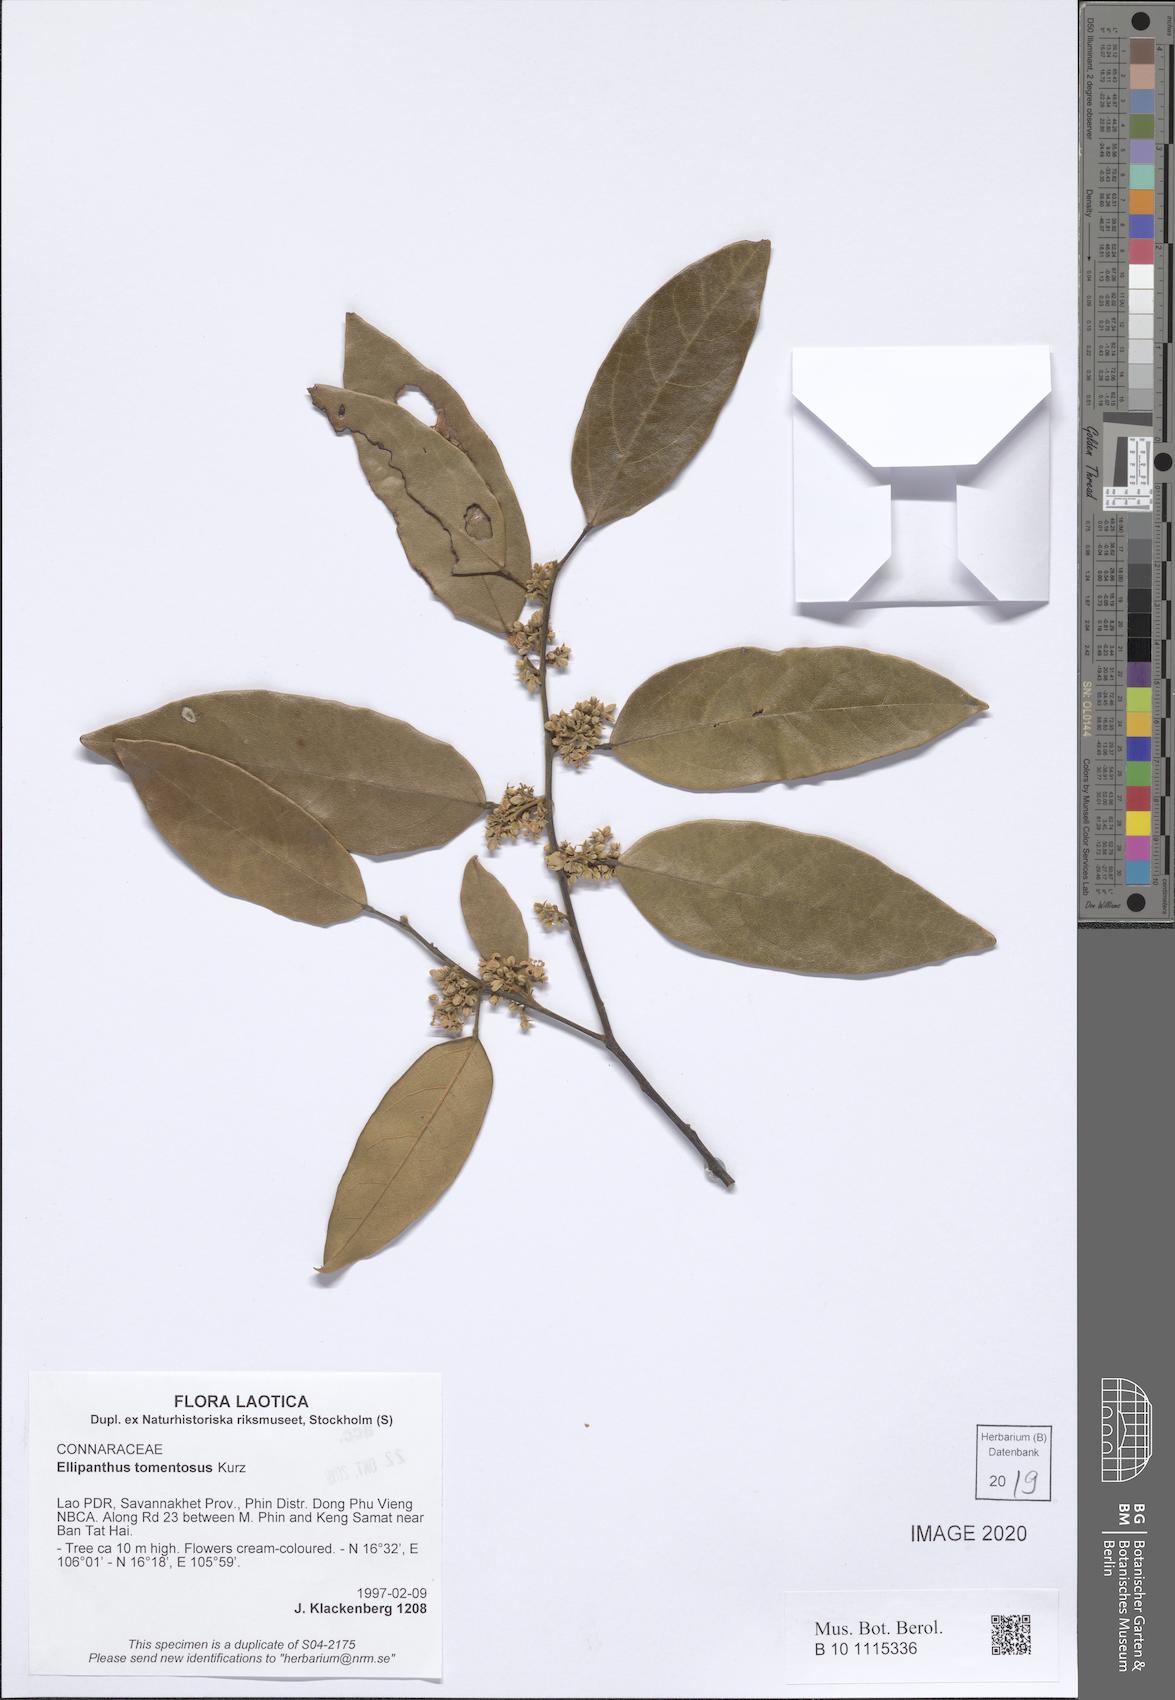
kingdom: Plantae
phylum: Tracheophyta
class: Magnoliopsida
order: Oxalidales
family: Connaraceae
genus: Ellipanthus
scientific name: Ellipanthus tomentosus
